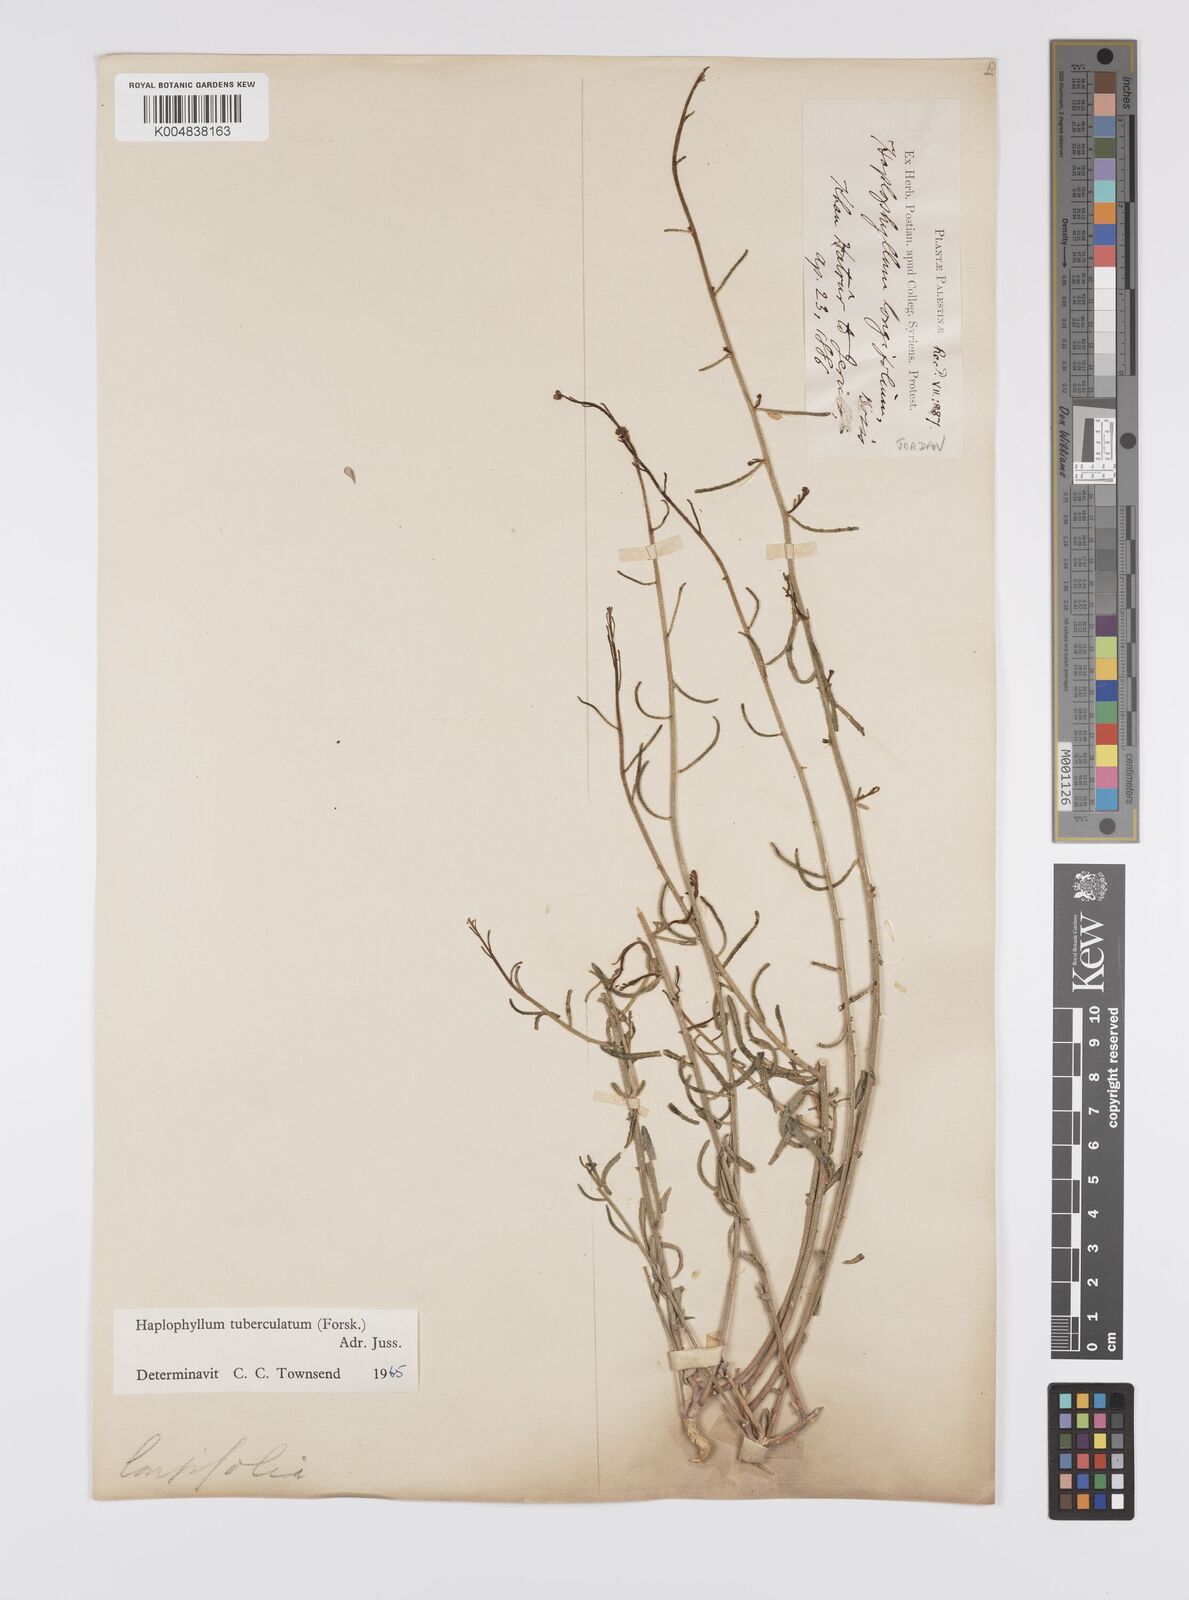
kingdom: Plantae
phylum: Tracheophyta
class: Magnoliopsida
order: Sapindales
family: Rutaceae
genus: Haplophyllum
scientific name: Haplophyllum tuberculatum
